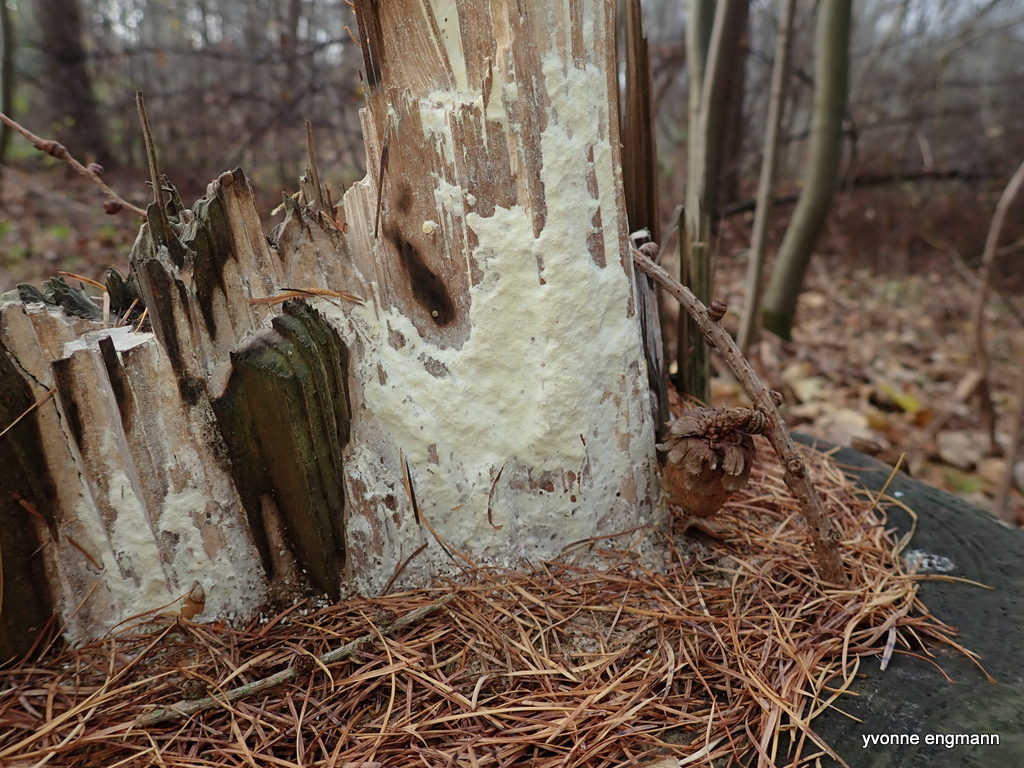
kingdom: Fungi
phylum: Basidiomycota
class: Agaricomycetes
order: Polyporales
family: Fomitopsidaceae
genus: Daedalea
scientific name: Daedalea xantha
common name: gul sejporesvamp
